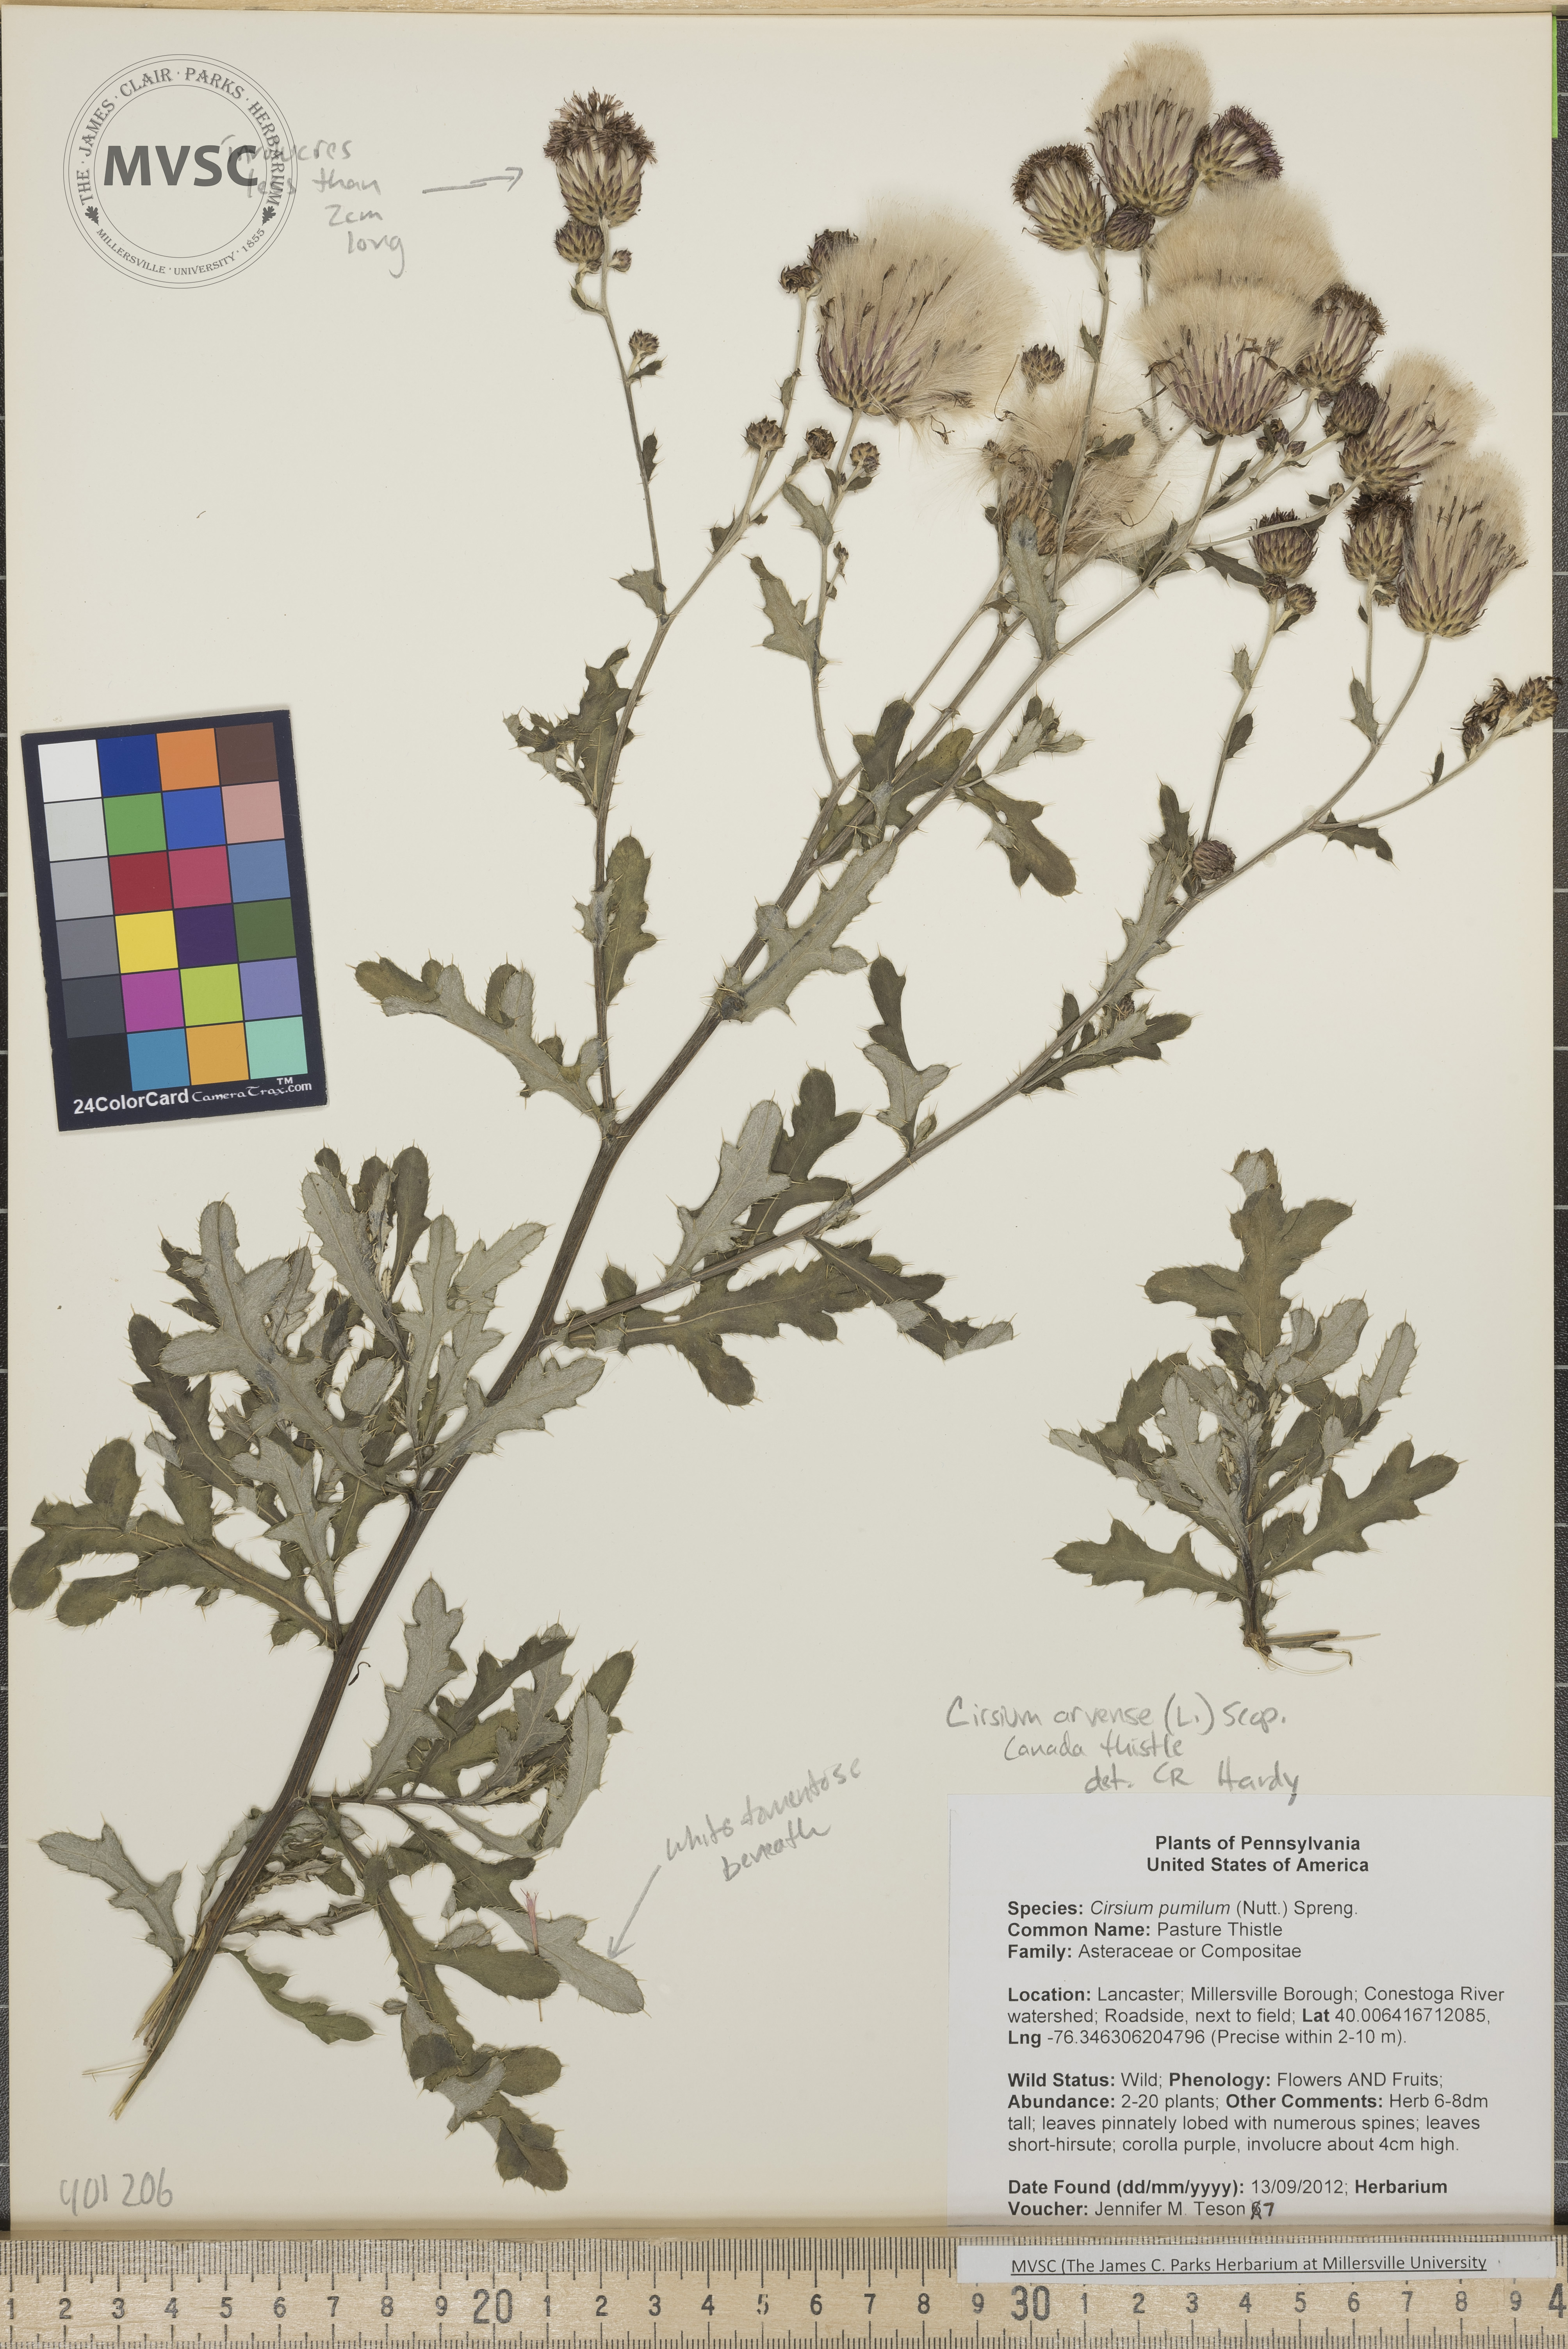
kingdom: Plantae
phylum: Tracheophyta
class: Magnoliopsida
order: Asterales
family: Asteraceae
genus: Cirsium
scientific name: Cirsium arvense
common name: Canada Thistle
